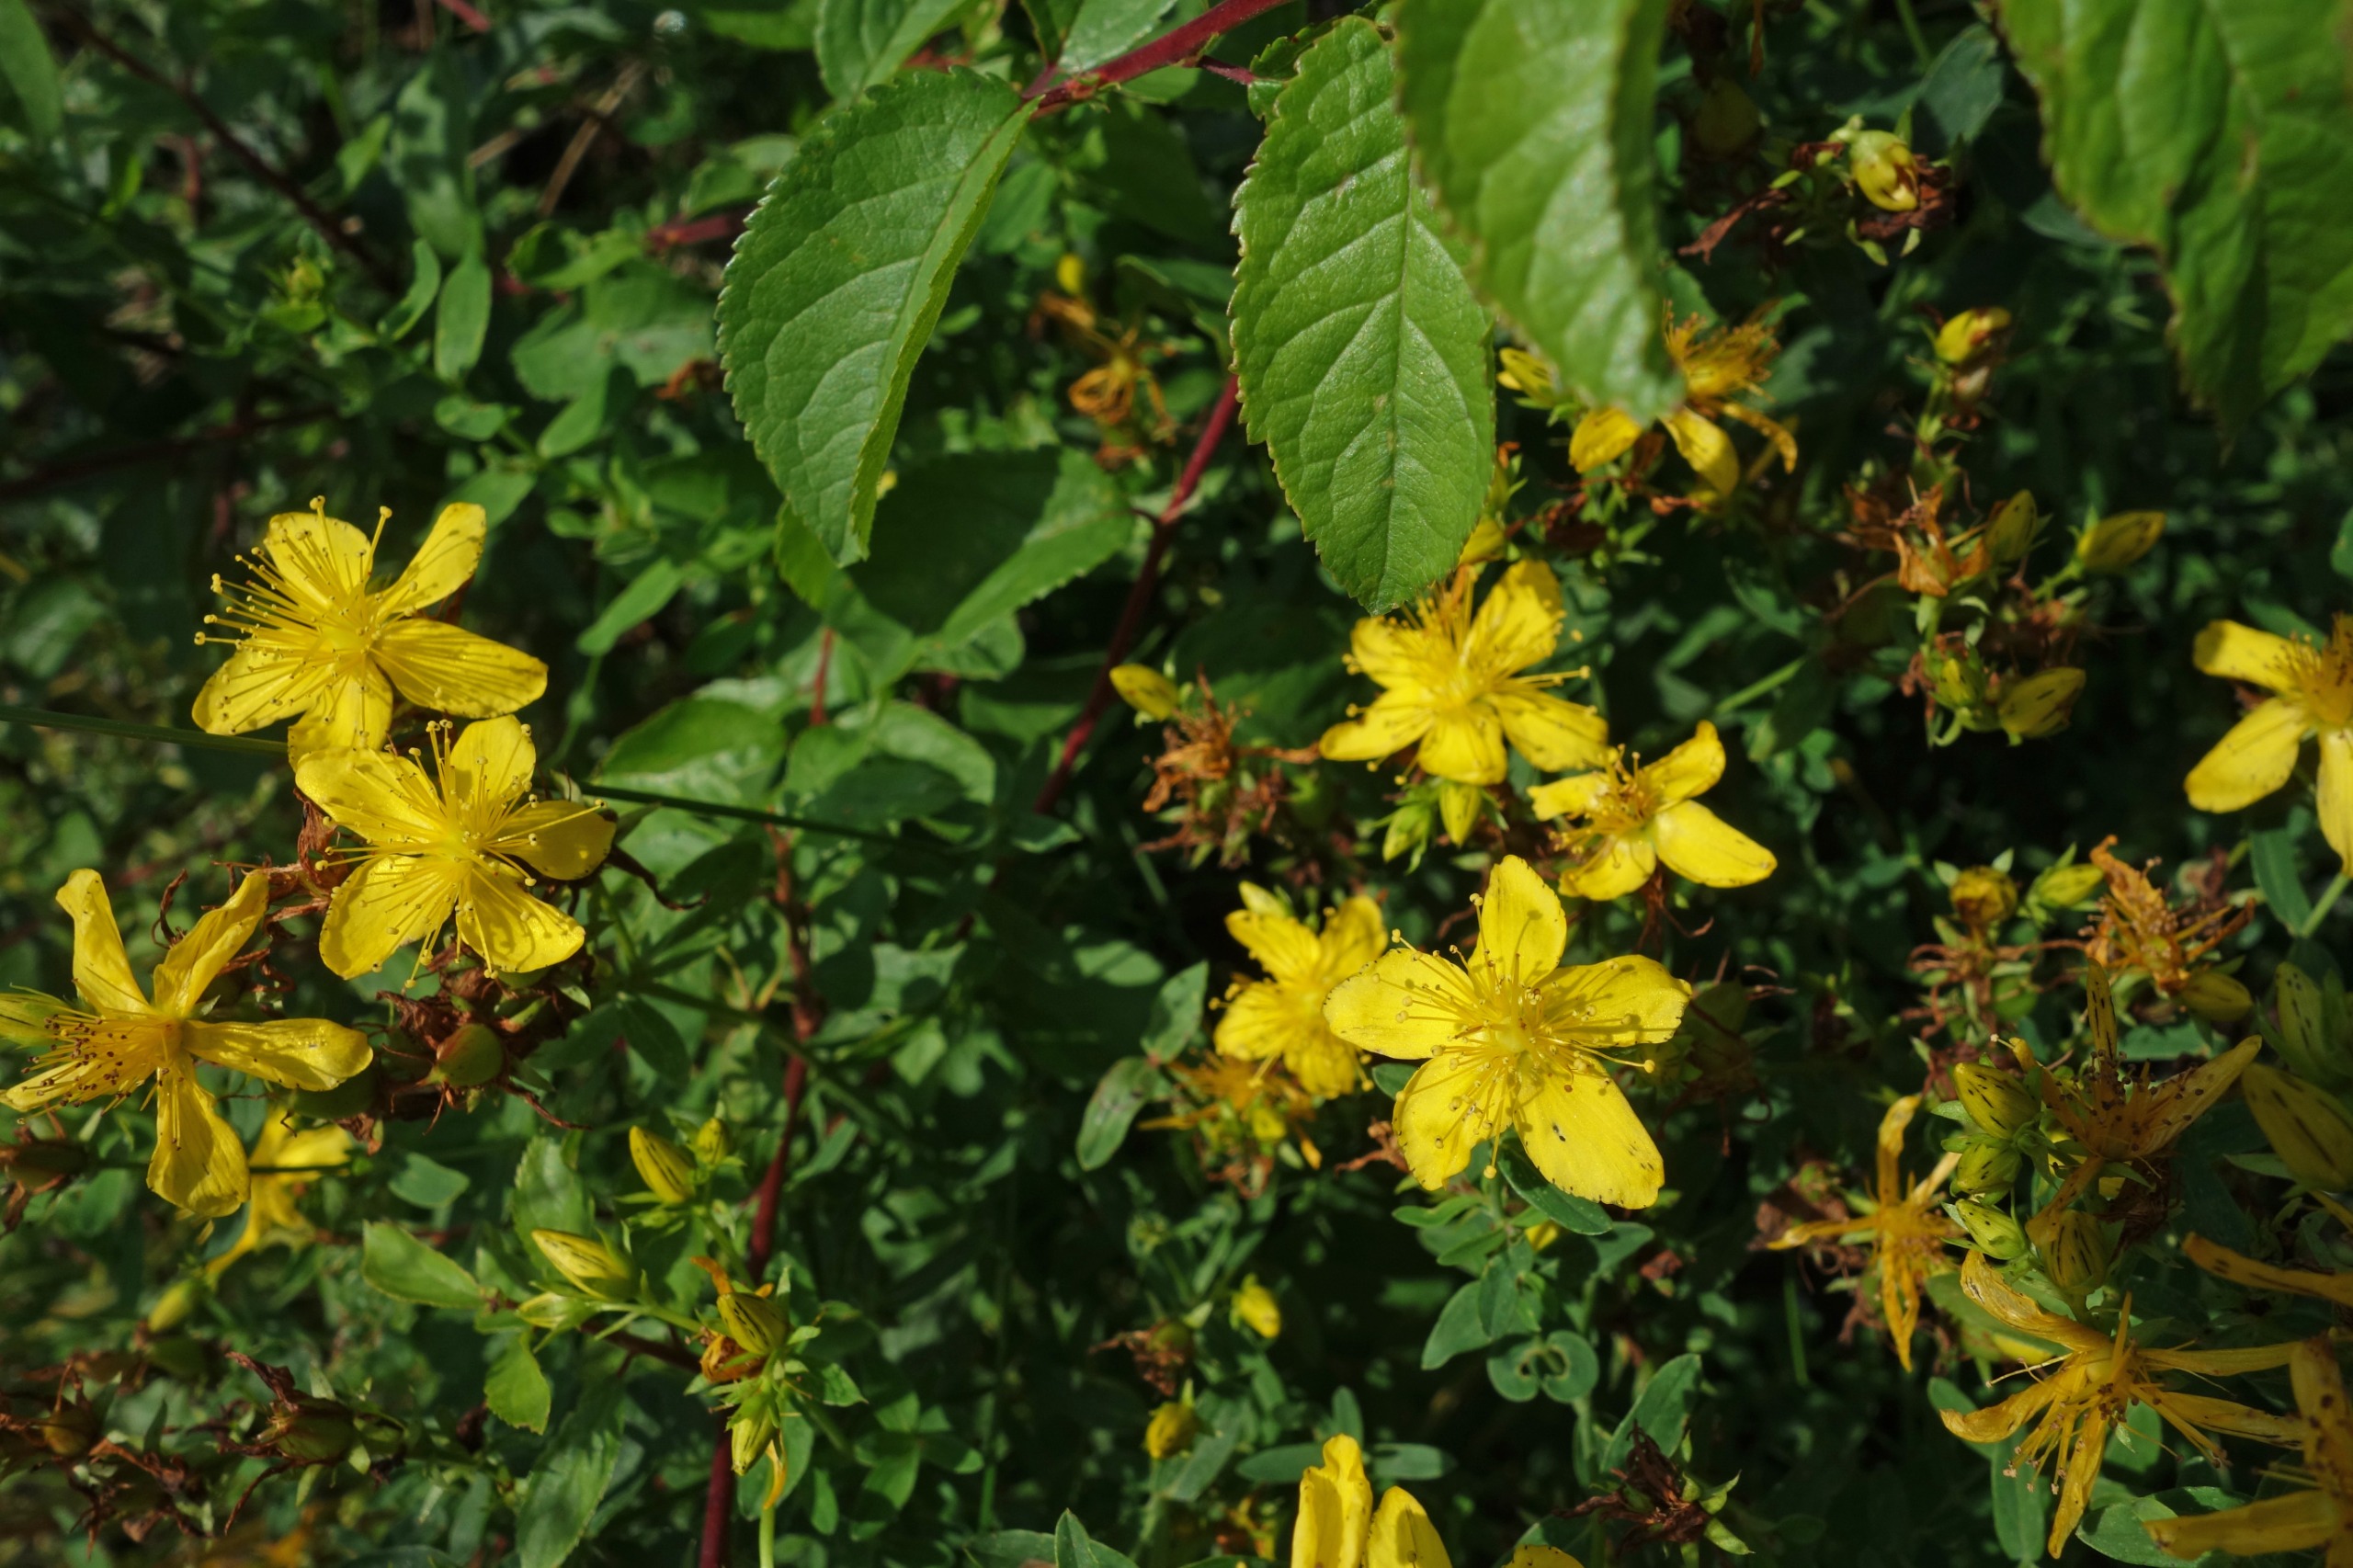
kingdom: Plantae
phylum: Tracheophyta
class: Magnoliopsida
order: Malpighiales
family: Hypericaceae
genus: Hypericum
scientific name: Hypericum perforatum
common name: Prikbladet perikon
